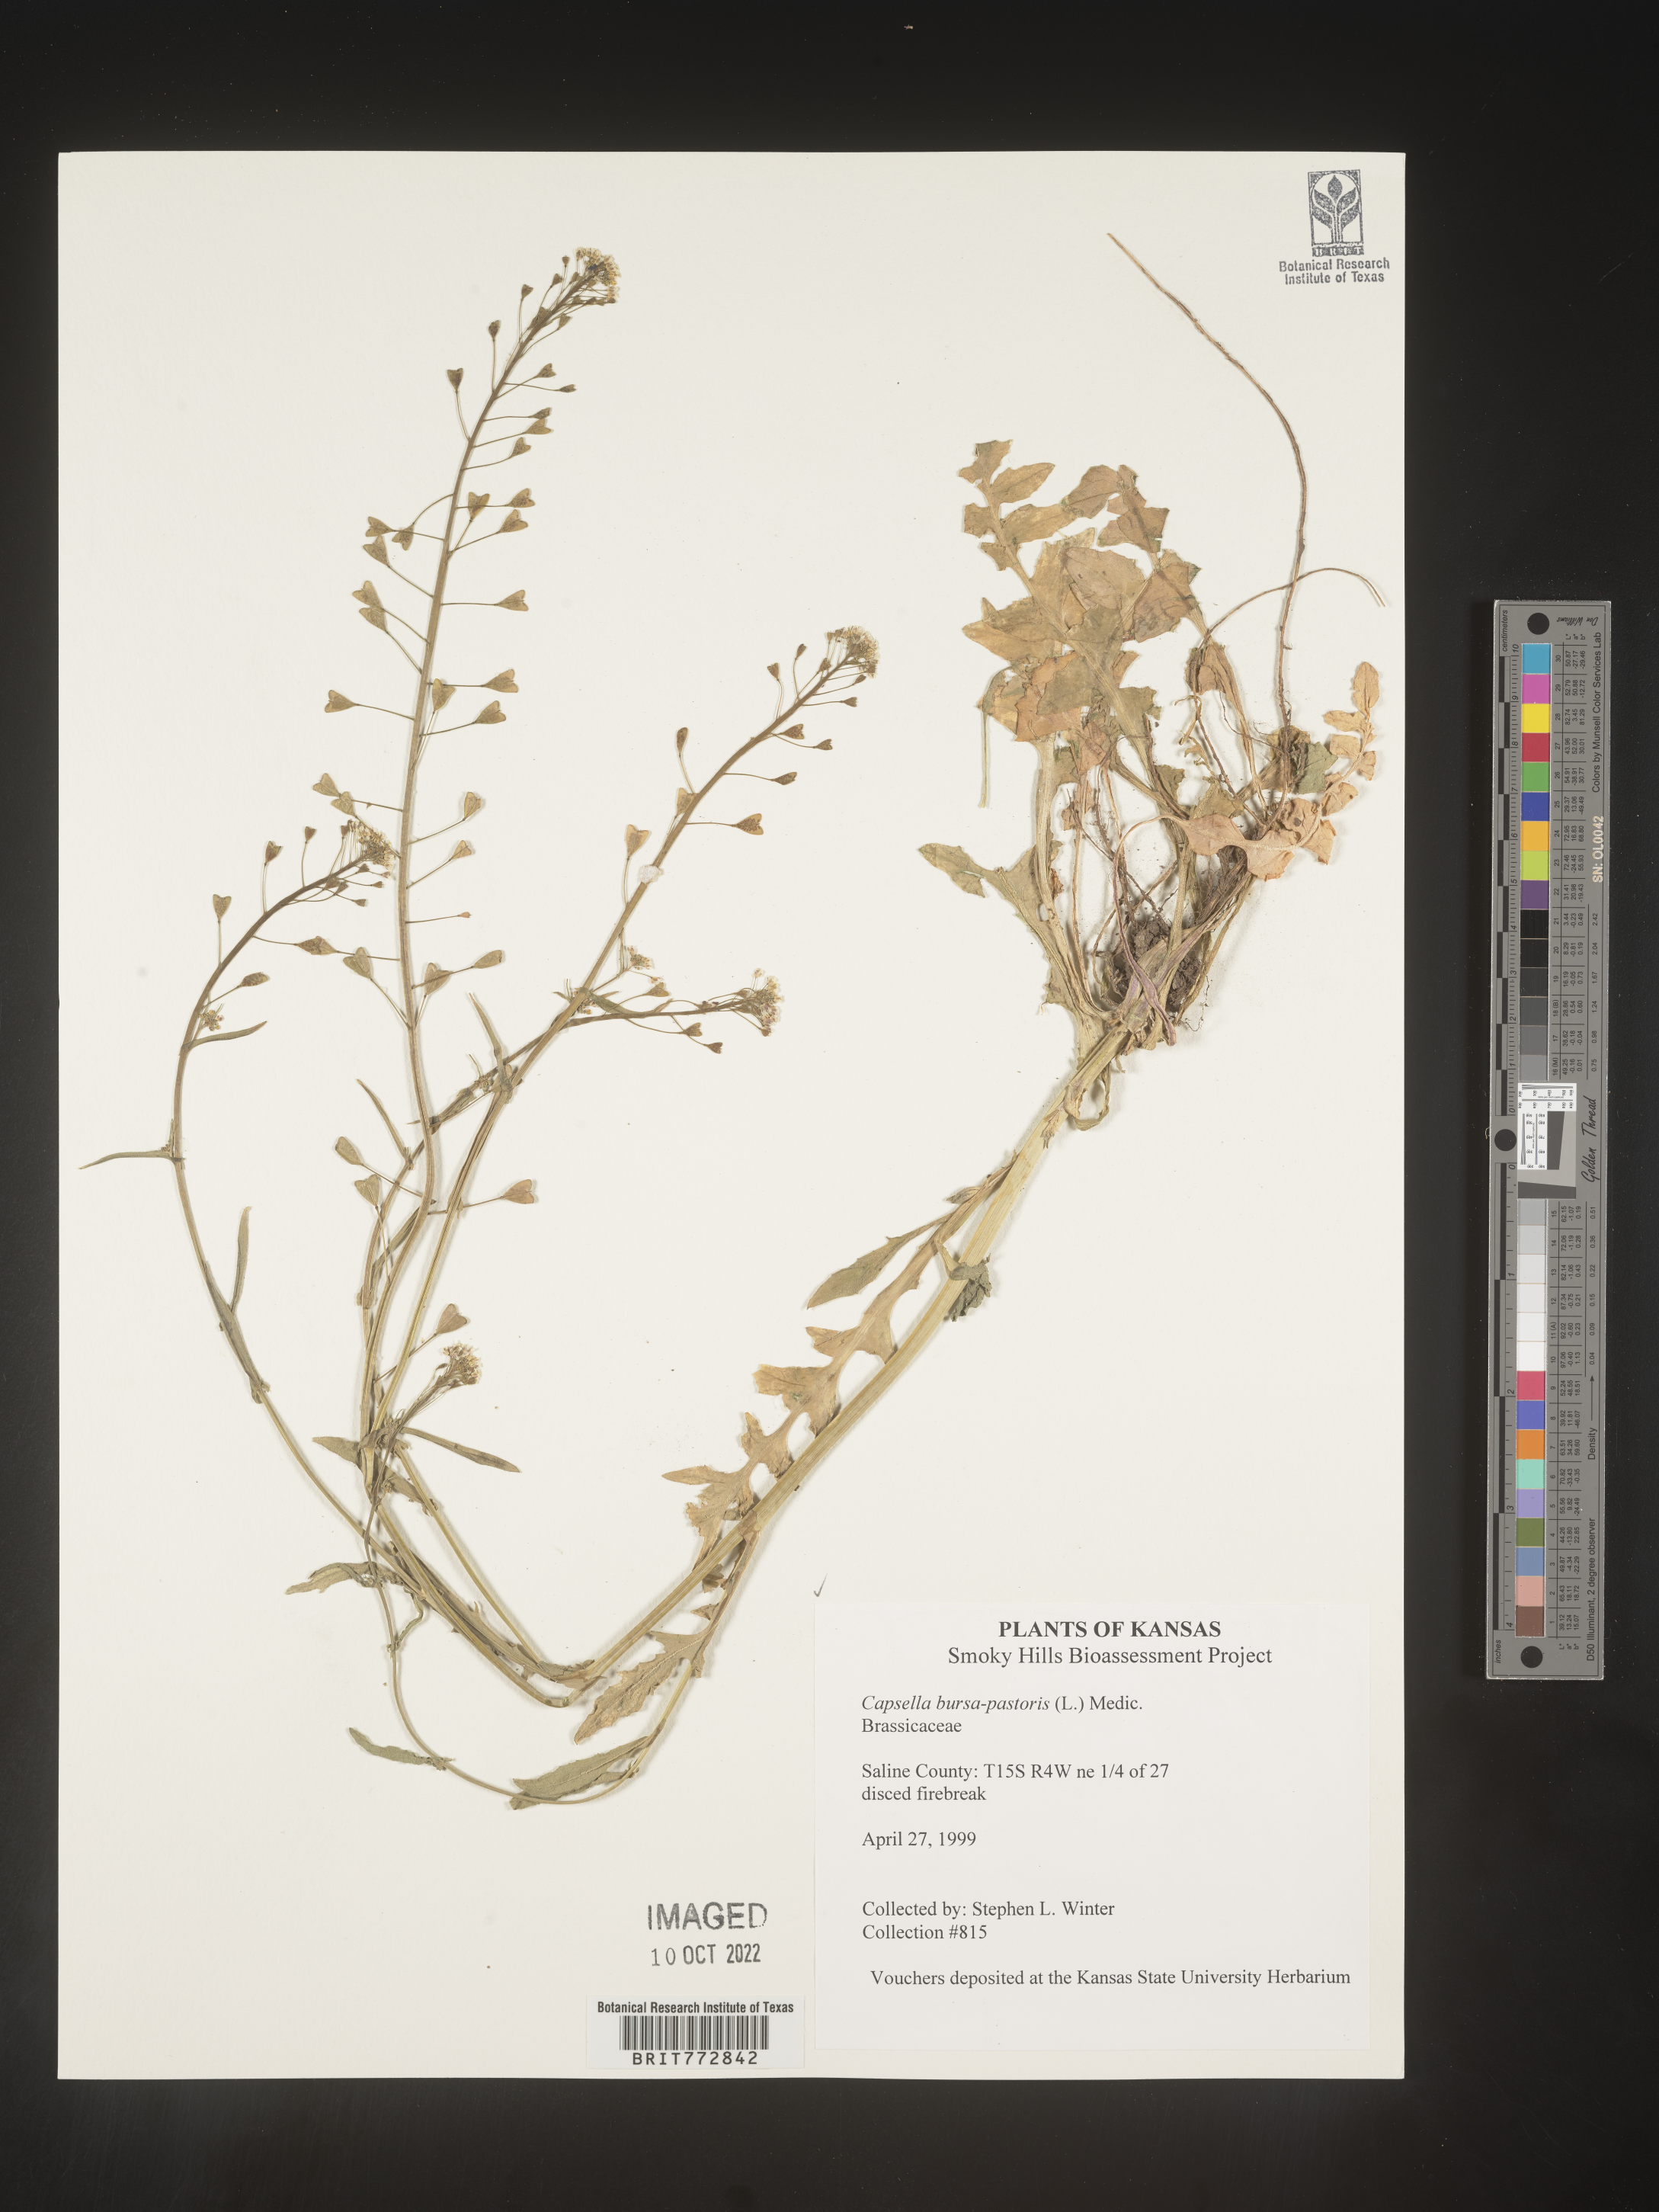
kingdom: Plantae
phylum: Tracheophyta
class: Magnoliopsida
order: Brassicales
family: Brassicaceae
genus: Capsella
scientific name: Capsella bursa-pastoris
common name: Shepherd's purse
